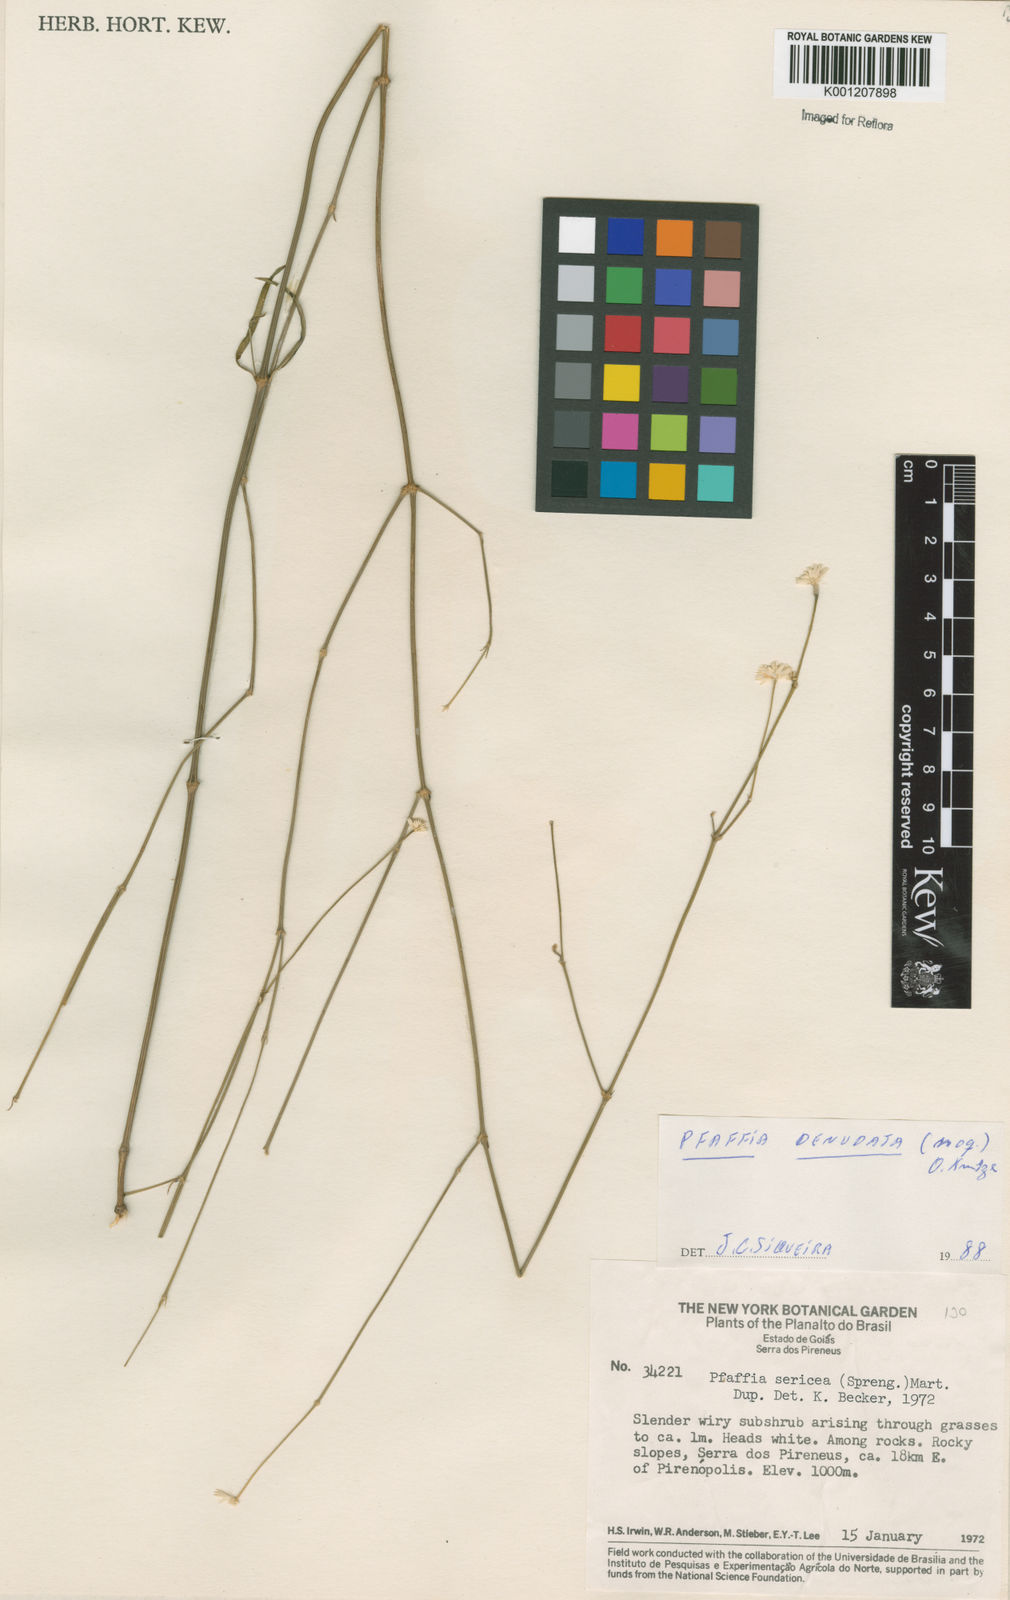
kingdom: Plantae
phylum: Tracheophyta
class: Magnoliopsida
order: Caryophyllales
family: Amaranthaceae
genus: Pfaffia
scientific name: Pfaffia denudata
